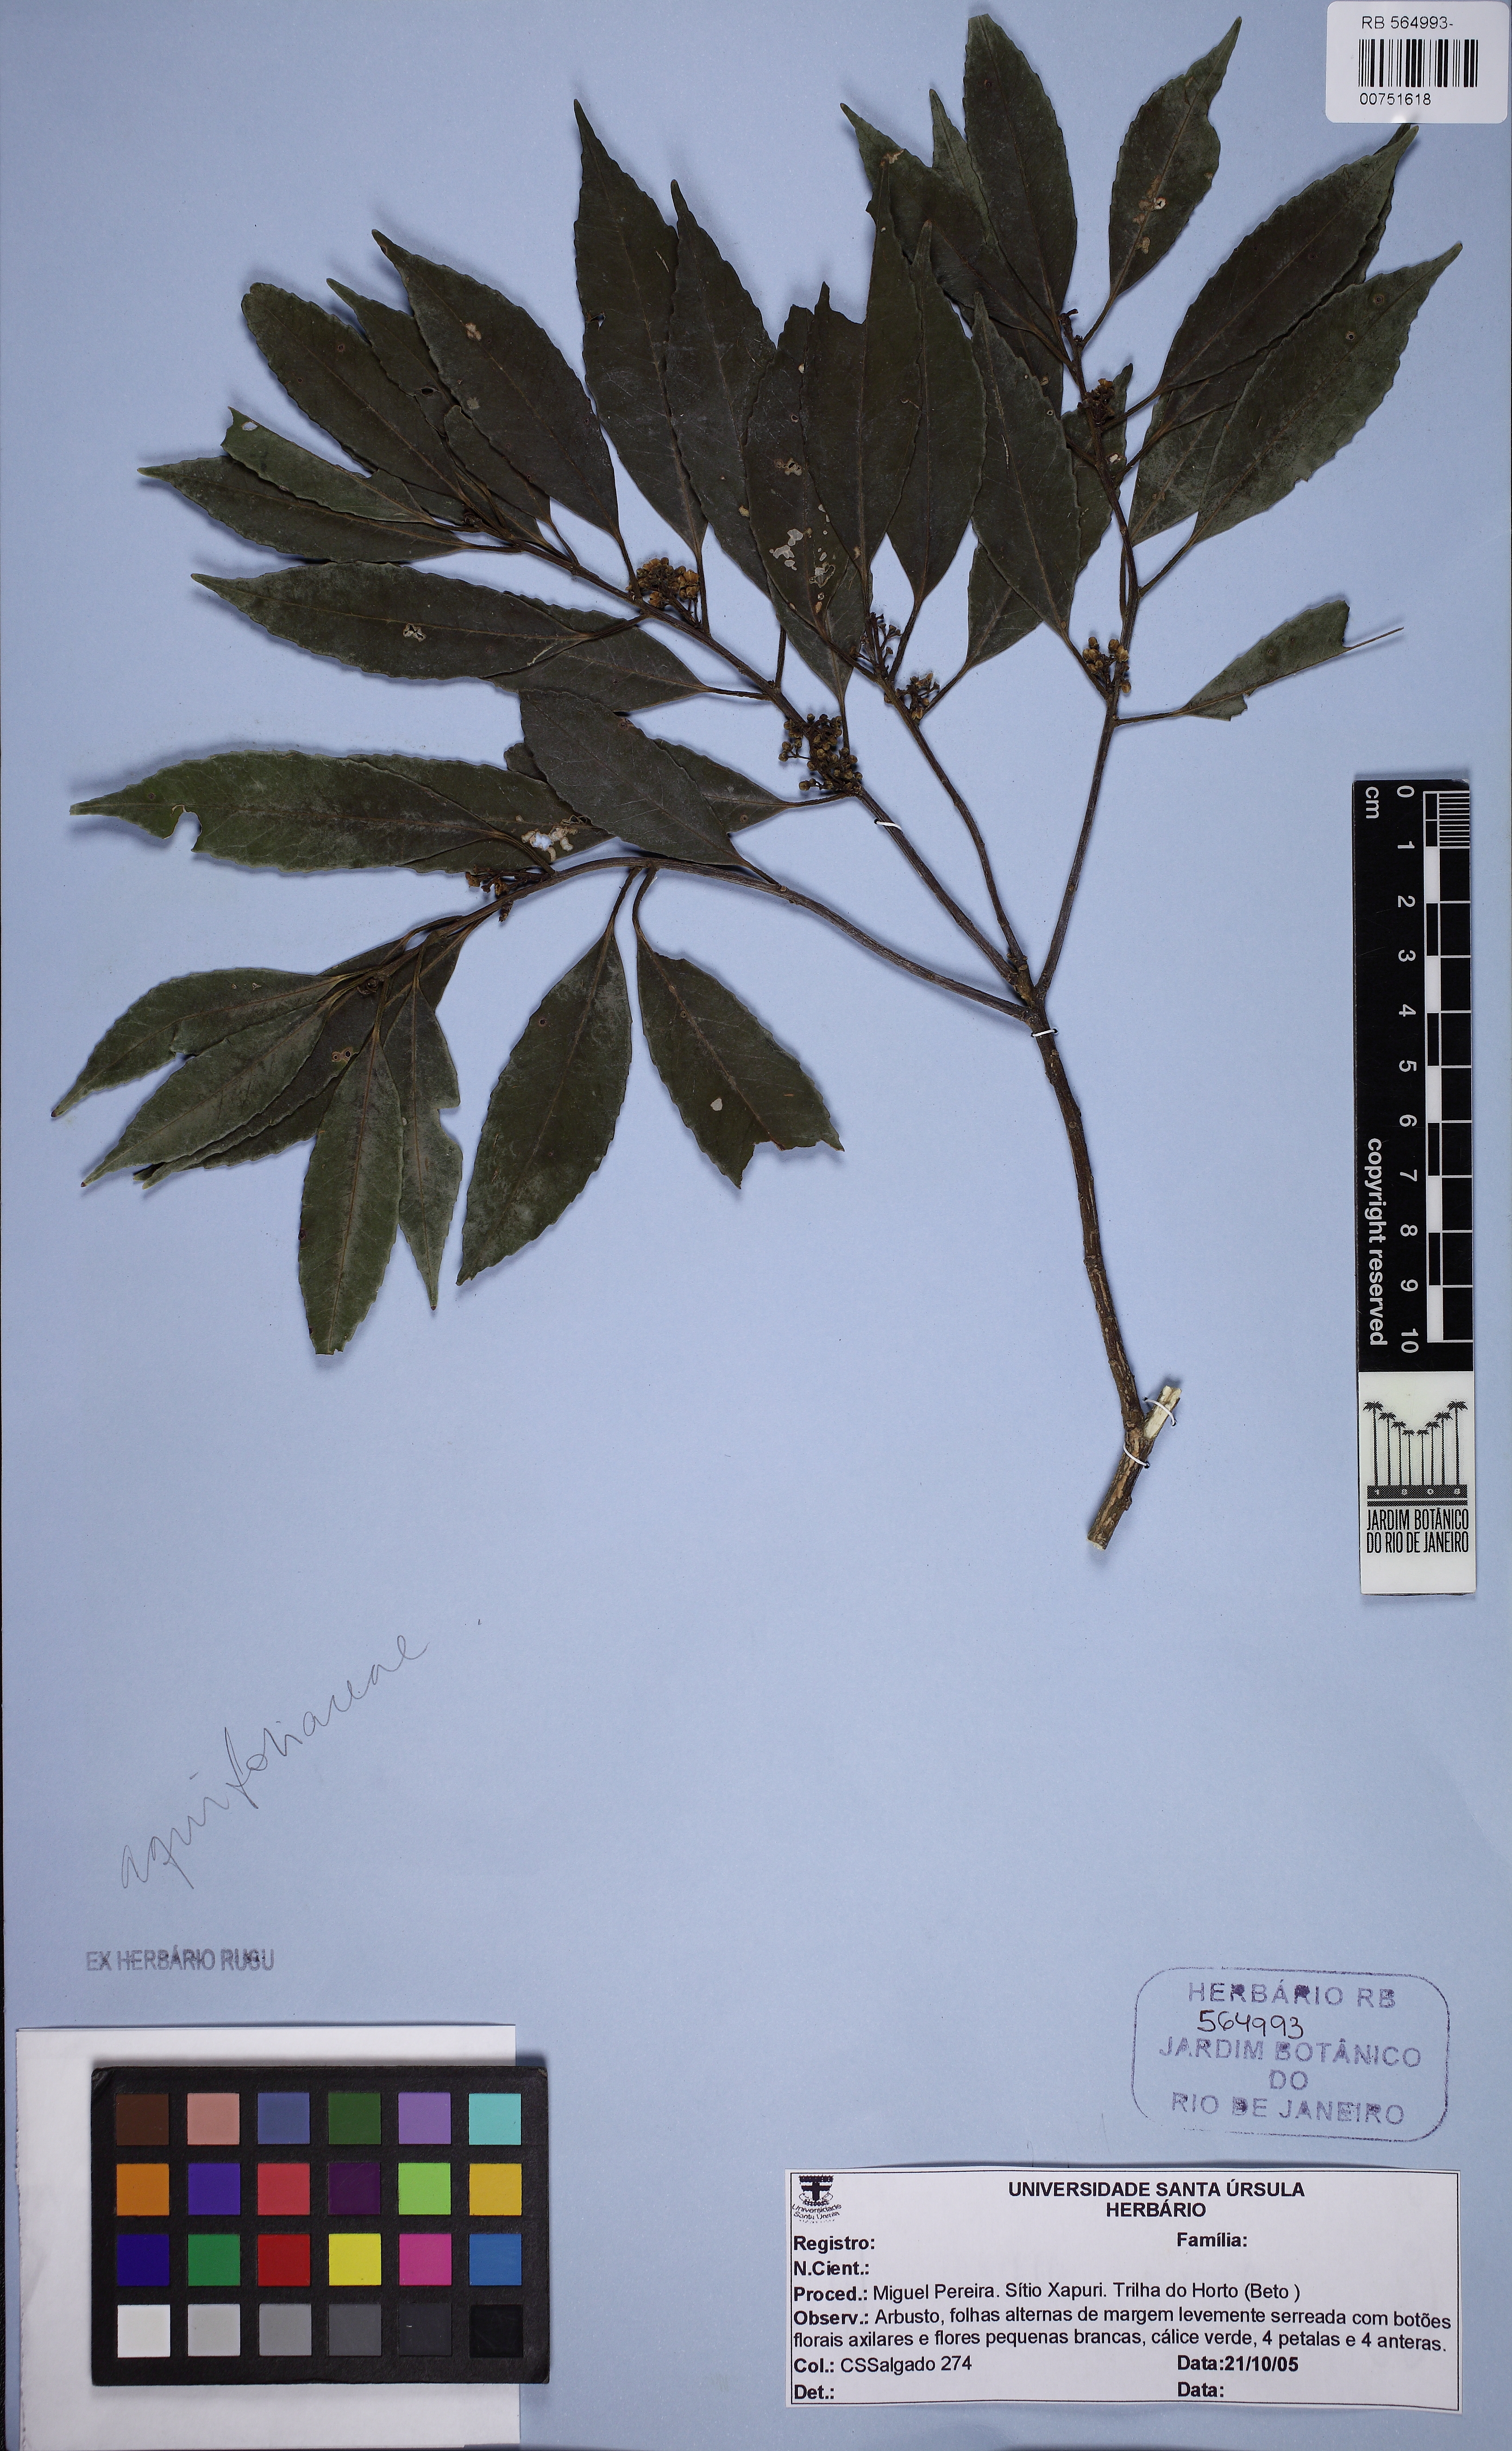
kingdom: Plantae
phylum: Tracheophyta
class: Magnoliopsida
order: Aquifoliales
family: Aquifoliaceae
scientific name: Aquifoliaceae
